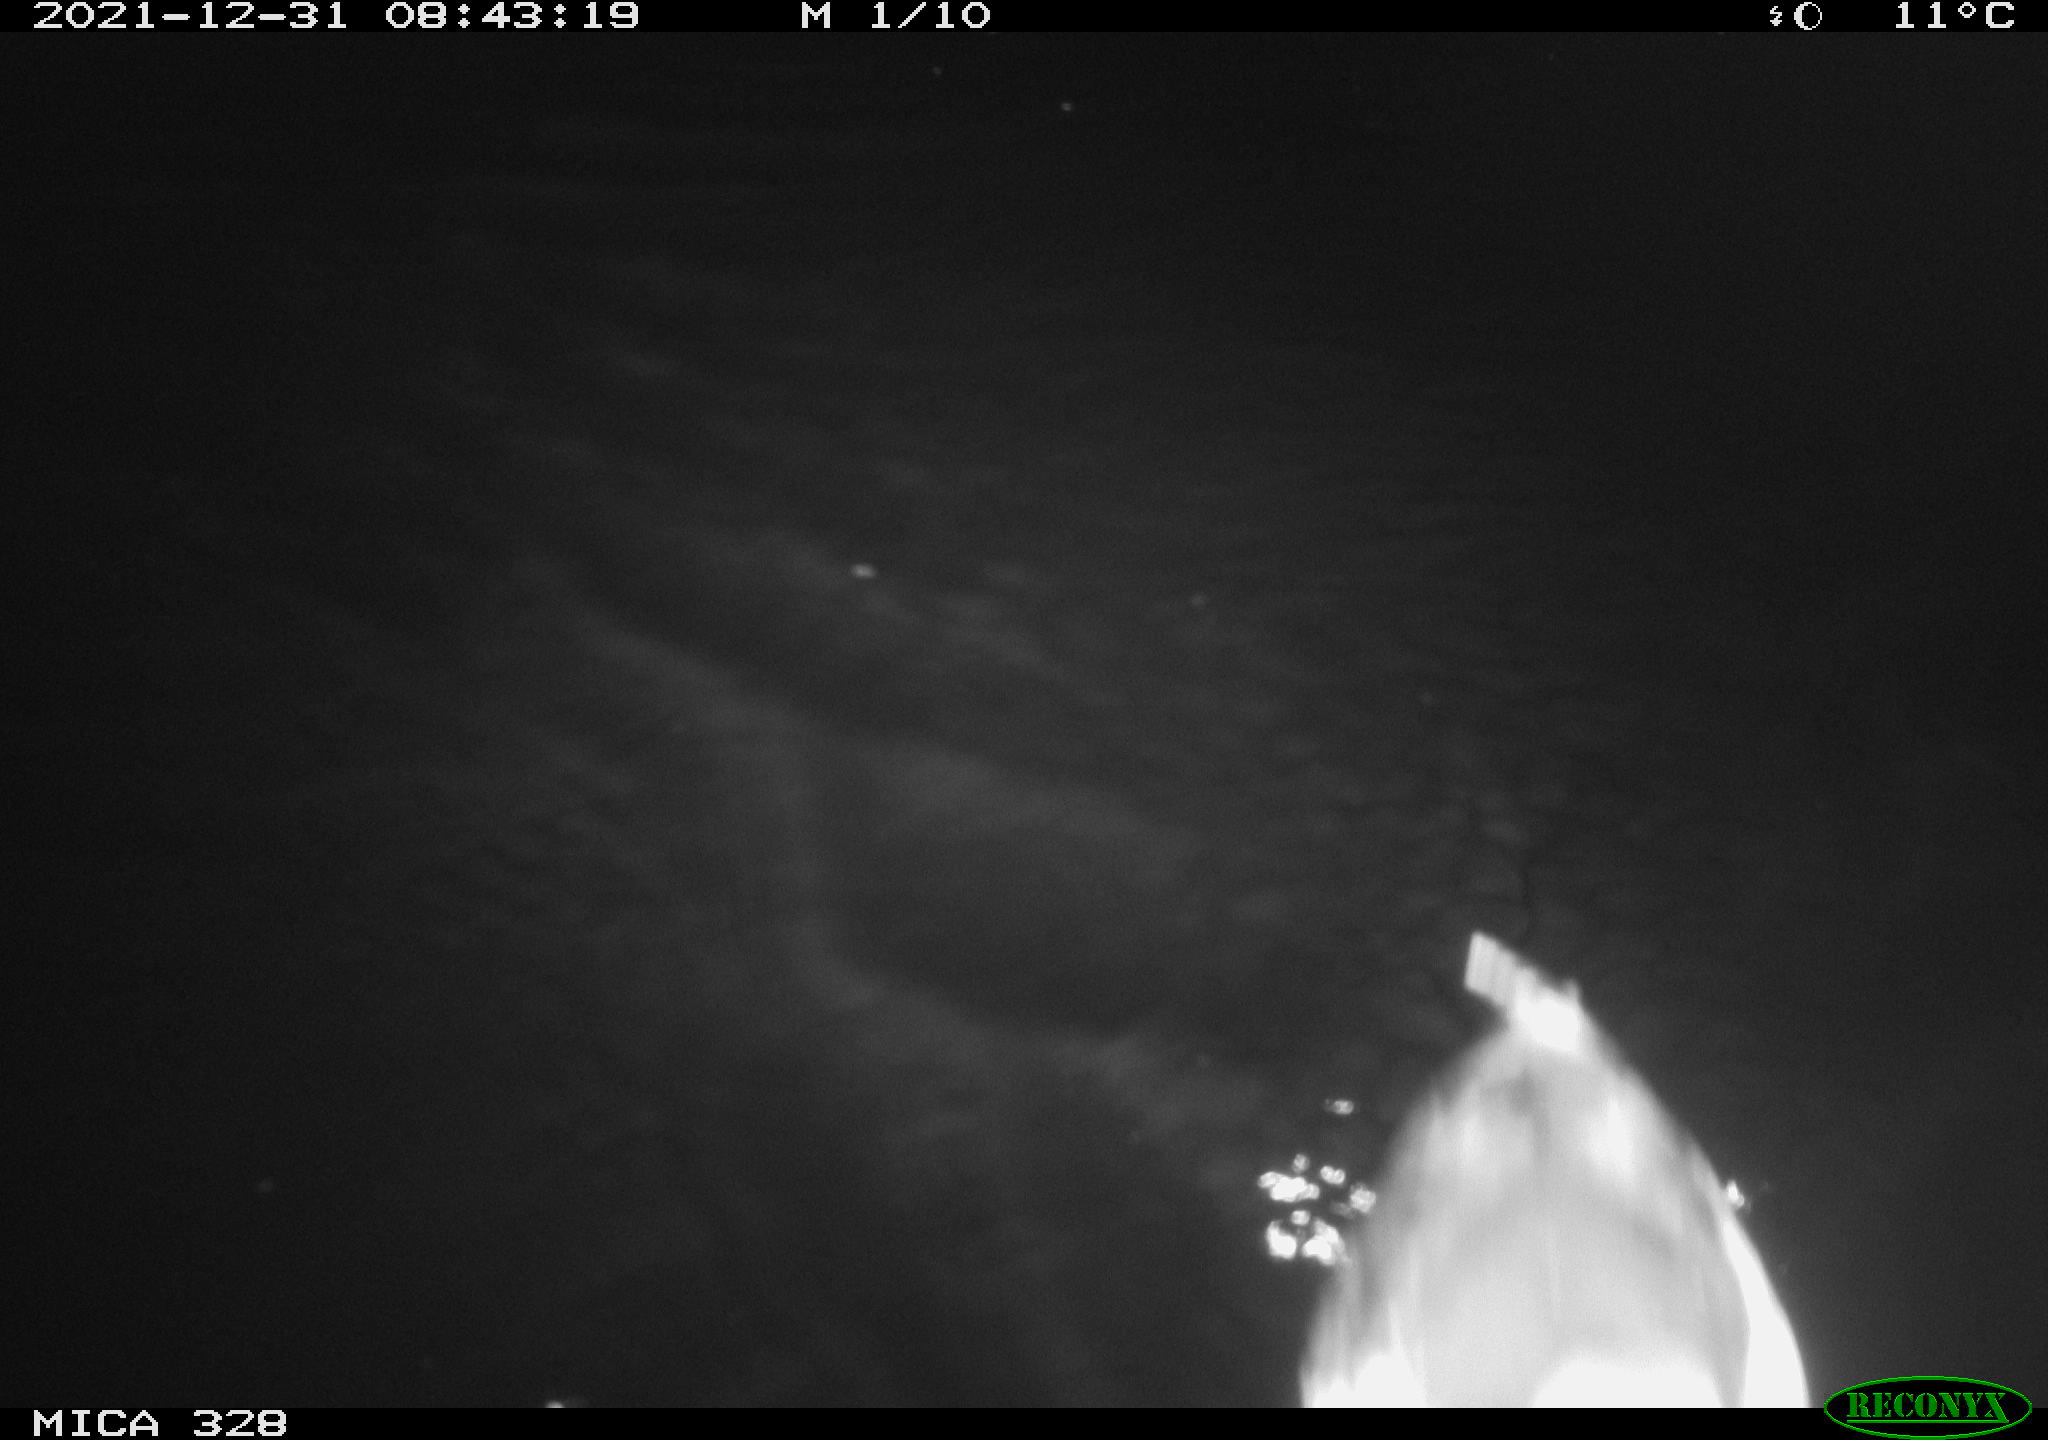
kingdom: Animalia
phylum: Chordata
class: Aves
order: Anseriformes
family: Anatidae
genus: Anas
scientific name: Anas
